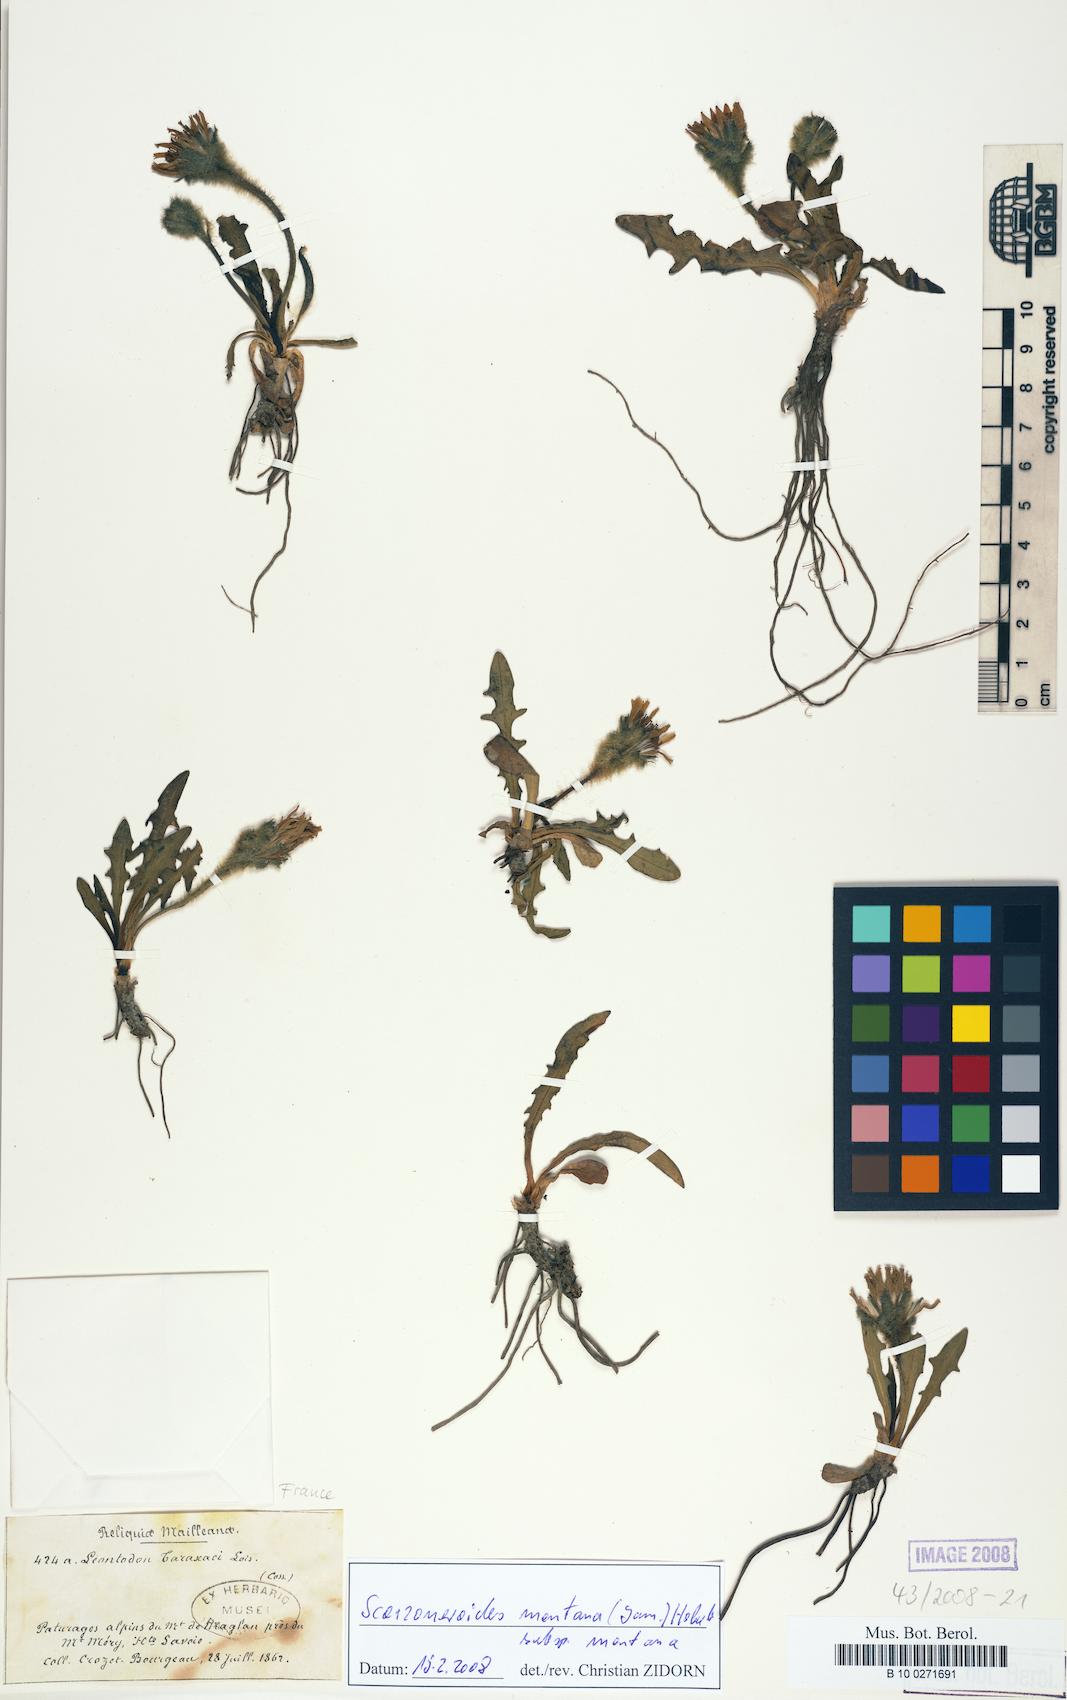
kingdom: Plantae
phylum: Tracheophyta
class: Magnoliopsida
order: Asterales
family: Asteraceae
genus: Scorzoneroides
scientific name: Scorzoneroides montana
